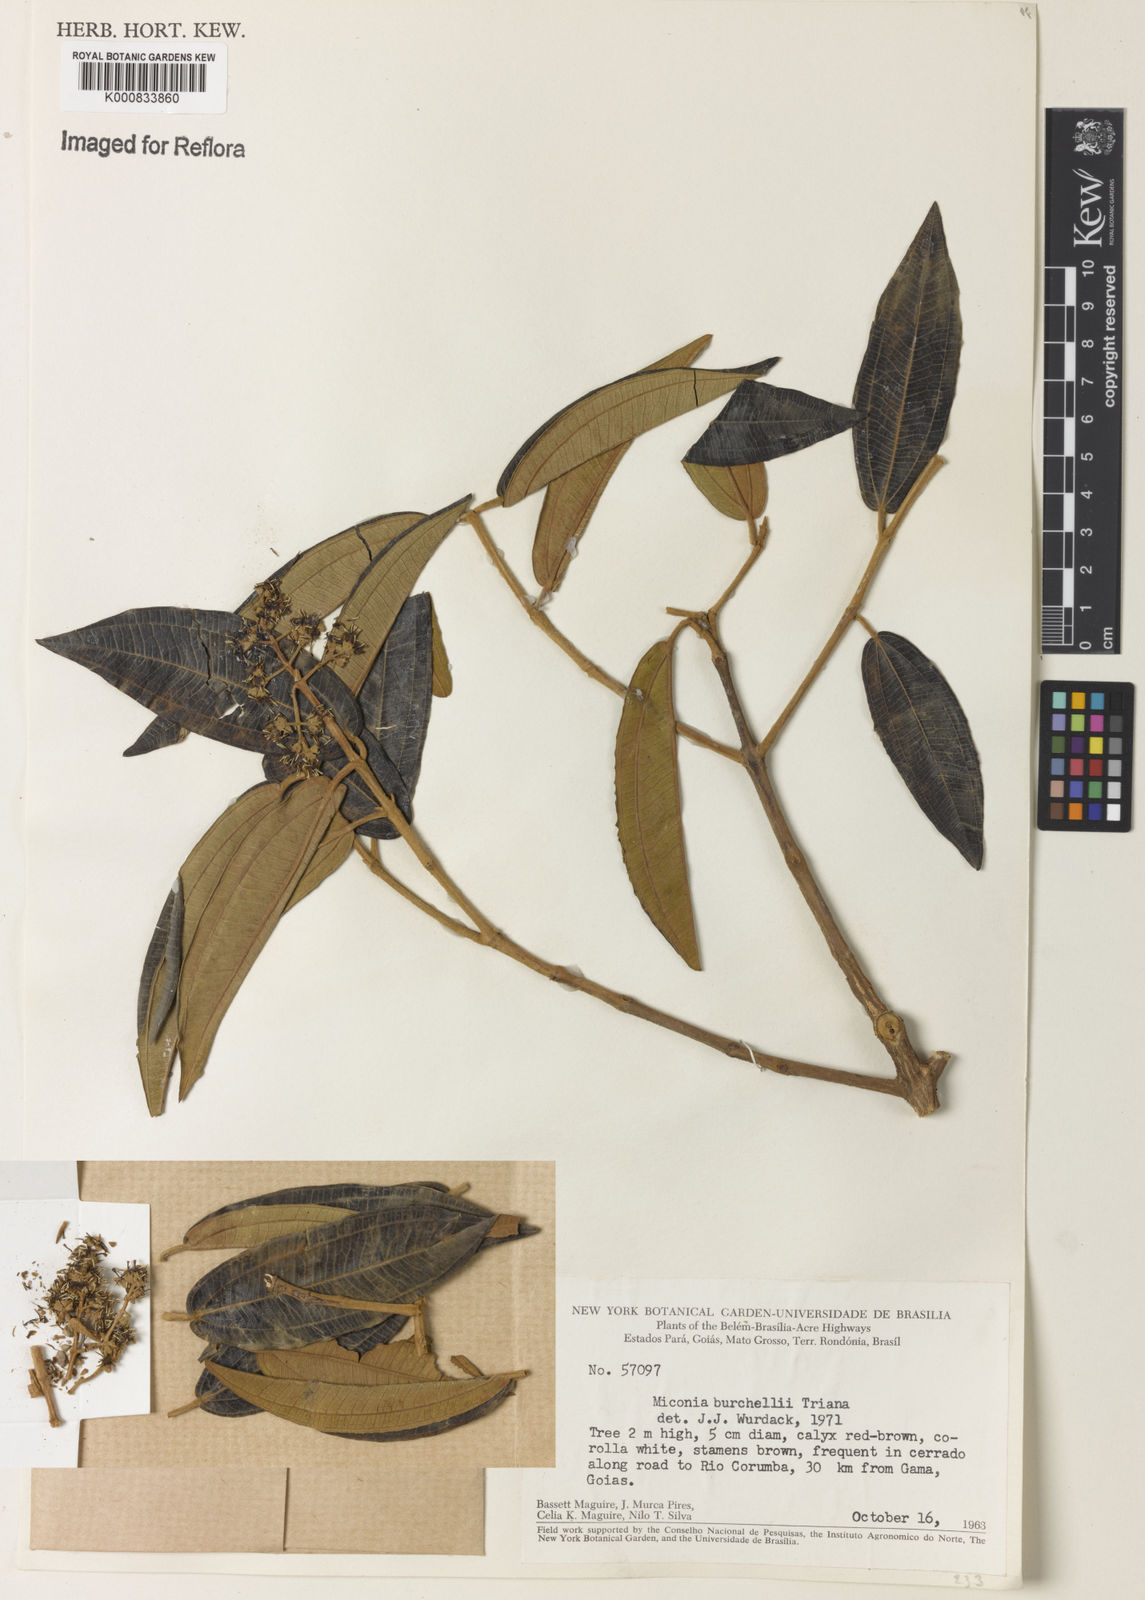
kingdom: Plantae
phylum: Tracheophyta
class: Magnoliopsida
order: Myrtales
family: Melastomataceae
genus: Miconia
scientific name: Miconia burchellii
